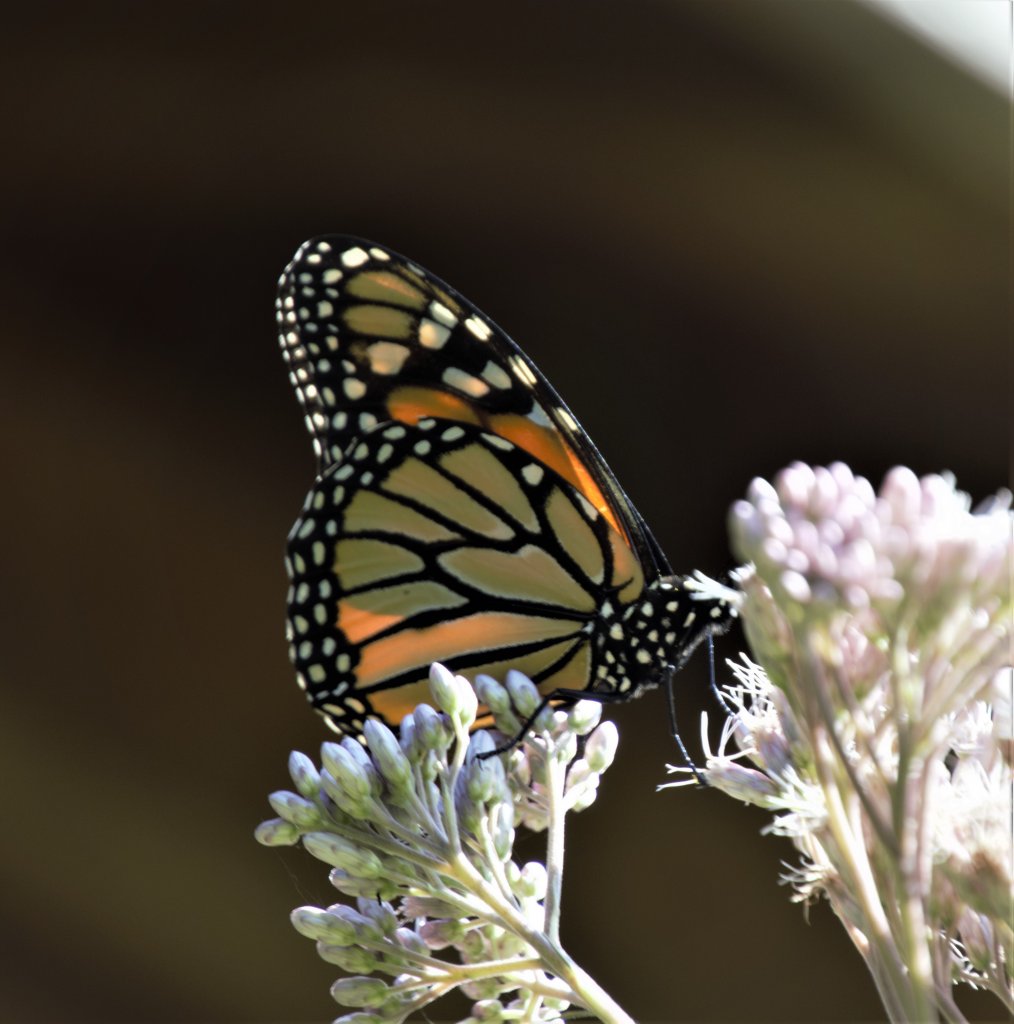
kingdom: Animalia
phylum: Arthropoda
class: Insecta
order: Lepidoptera
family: Nymphalidae
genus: Danaus
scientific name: Danaus plexippus
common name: Monarch
